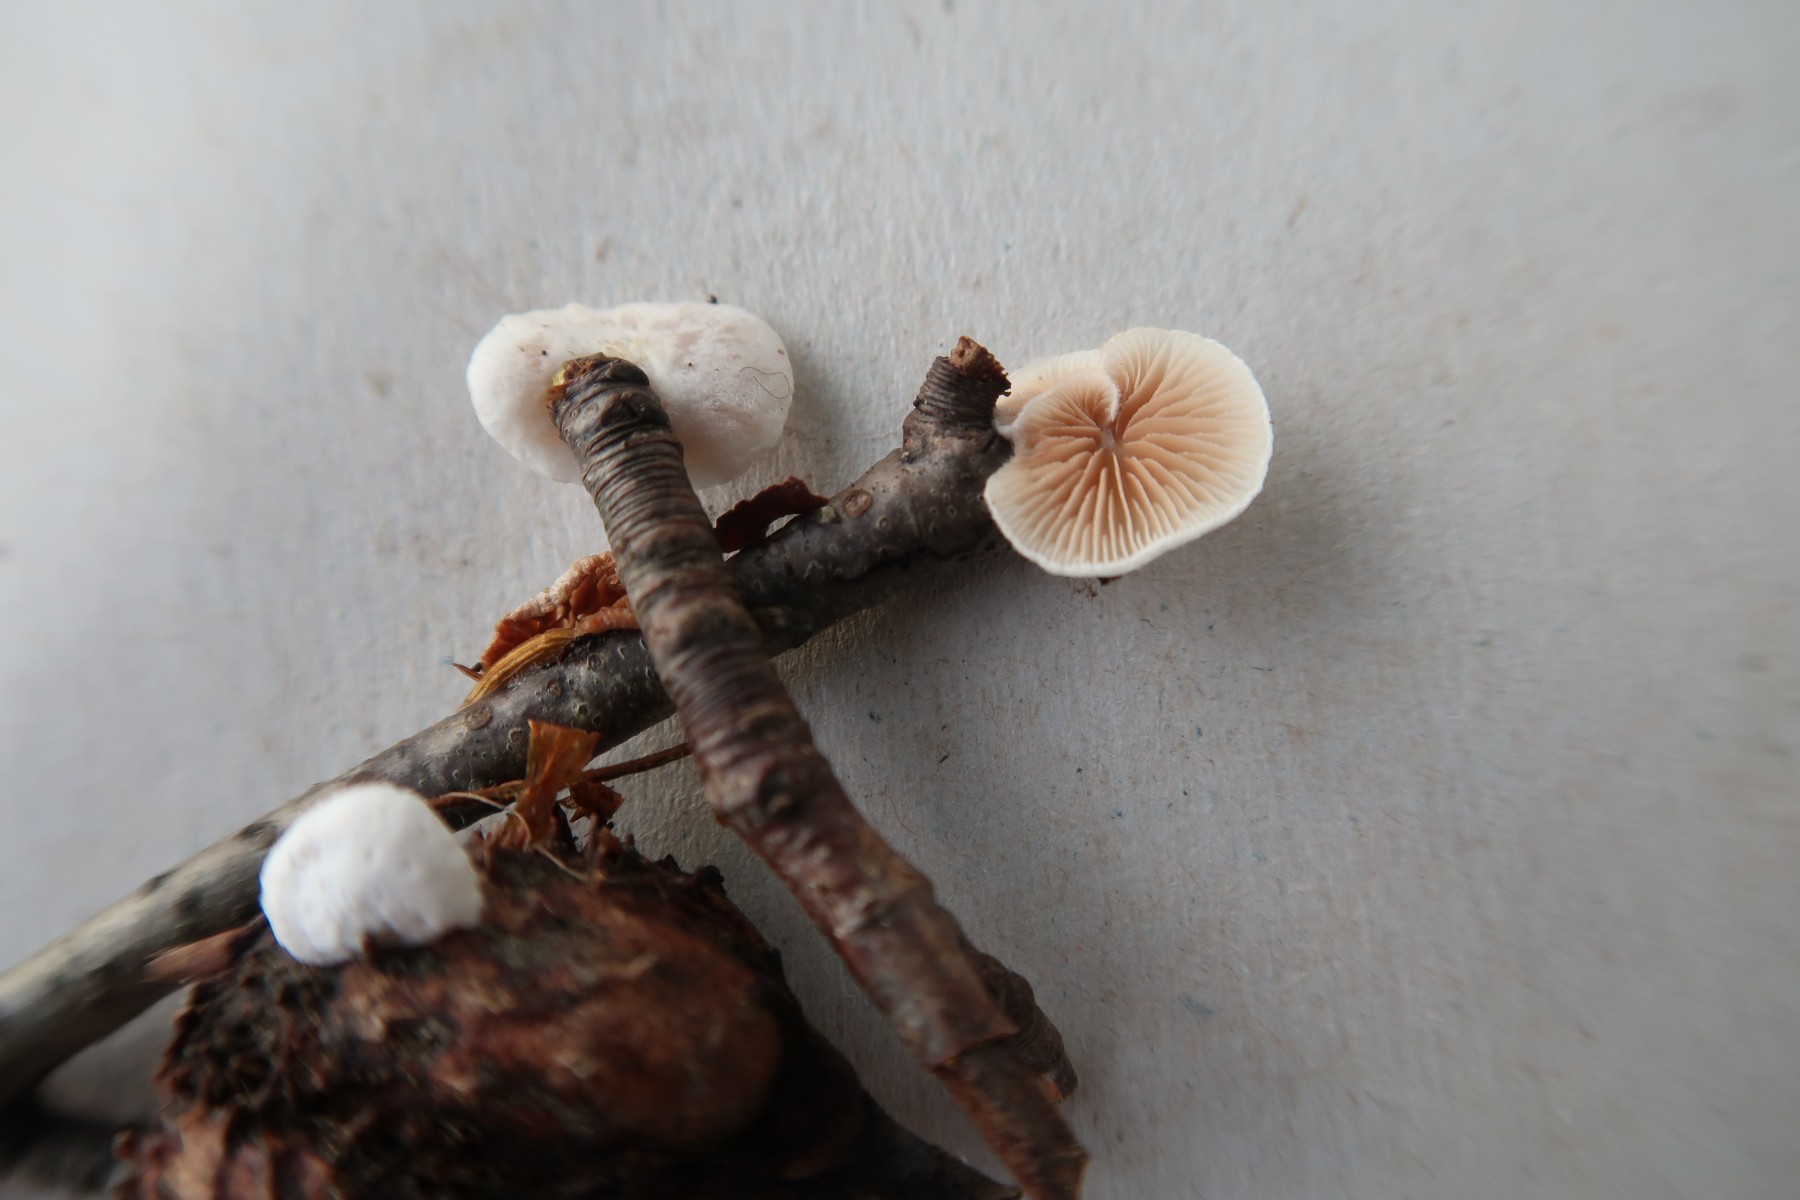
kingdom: Fungi
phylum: Basidiomycota
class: Agaricomycetes
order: Agaricales
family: Crepidotaceae
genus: Crepidotus
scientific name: Crepidotus variabilis
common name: forskelligformet muslingesvamp
